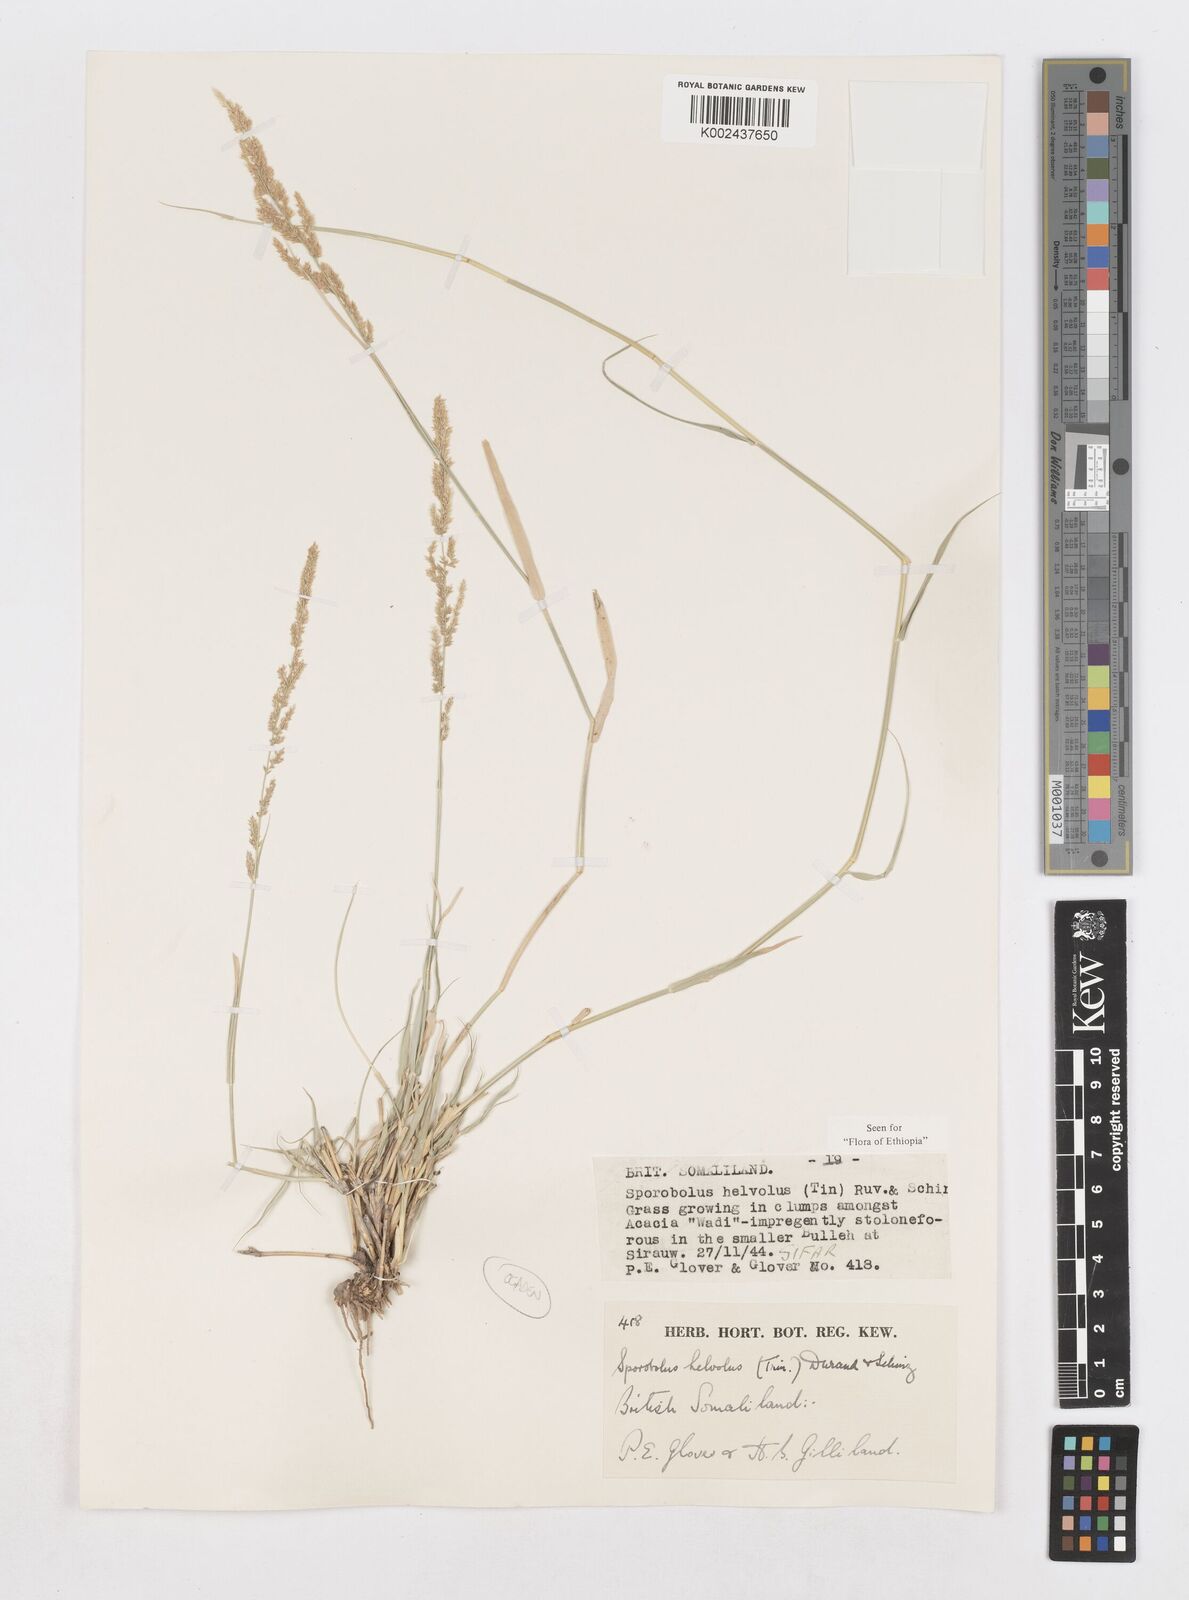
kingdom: Plantae
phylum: Tracheophyta
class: Liliopsida
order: Poales
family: Poaceae
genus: Sporobolus
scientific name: Sporobolus helvolus
